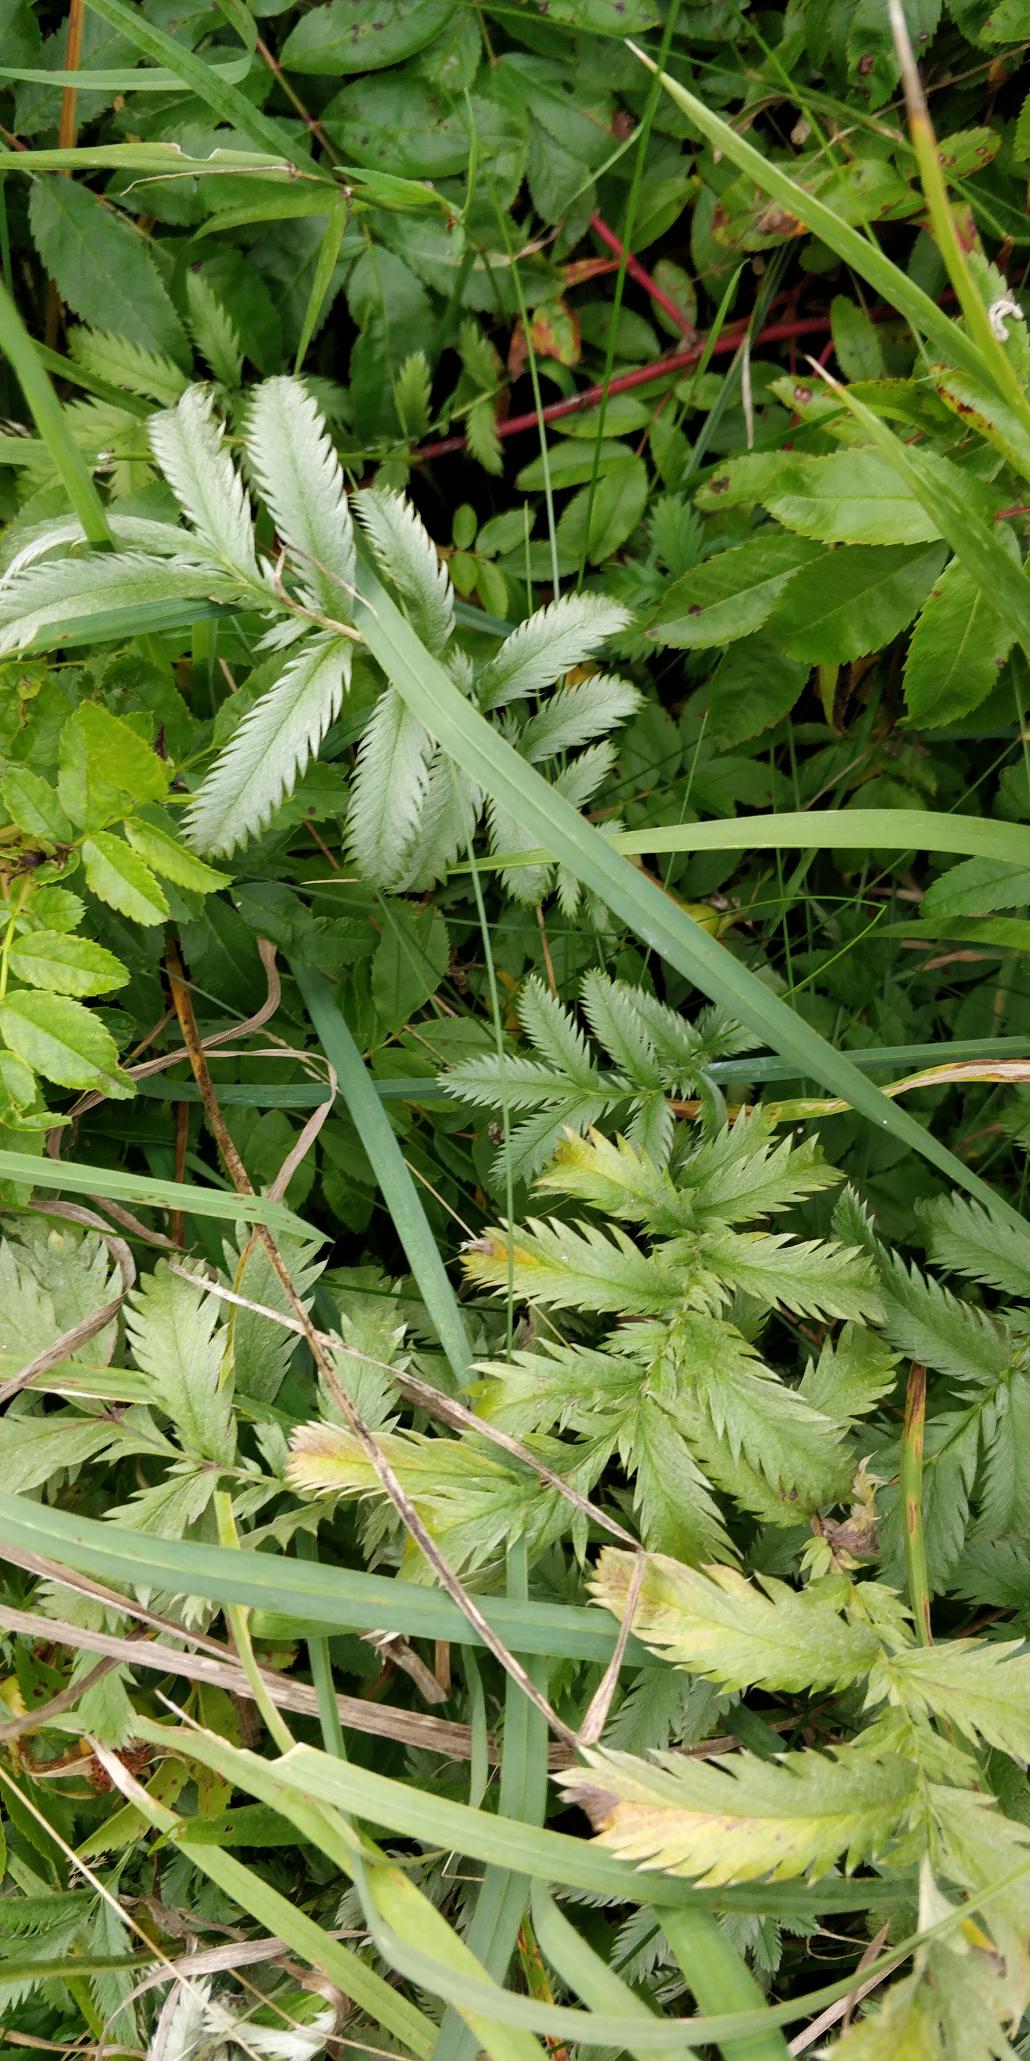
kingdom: Plantae
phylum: Tracheophyta
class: Magnoliopsida
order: Rosales
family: Rosaceae
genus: Argentina
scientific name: Argentina anserina
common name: Gåsepotentil
